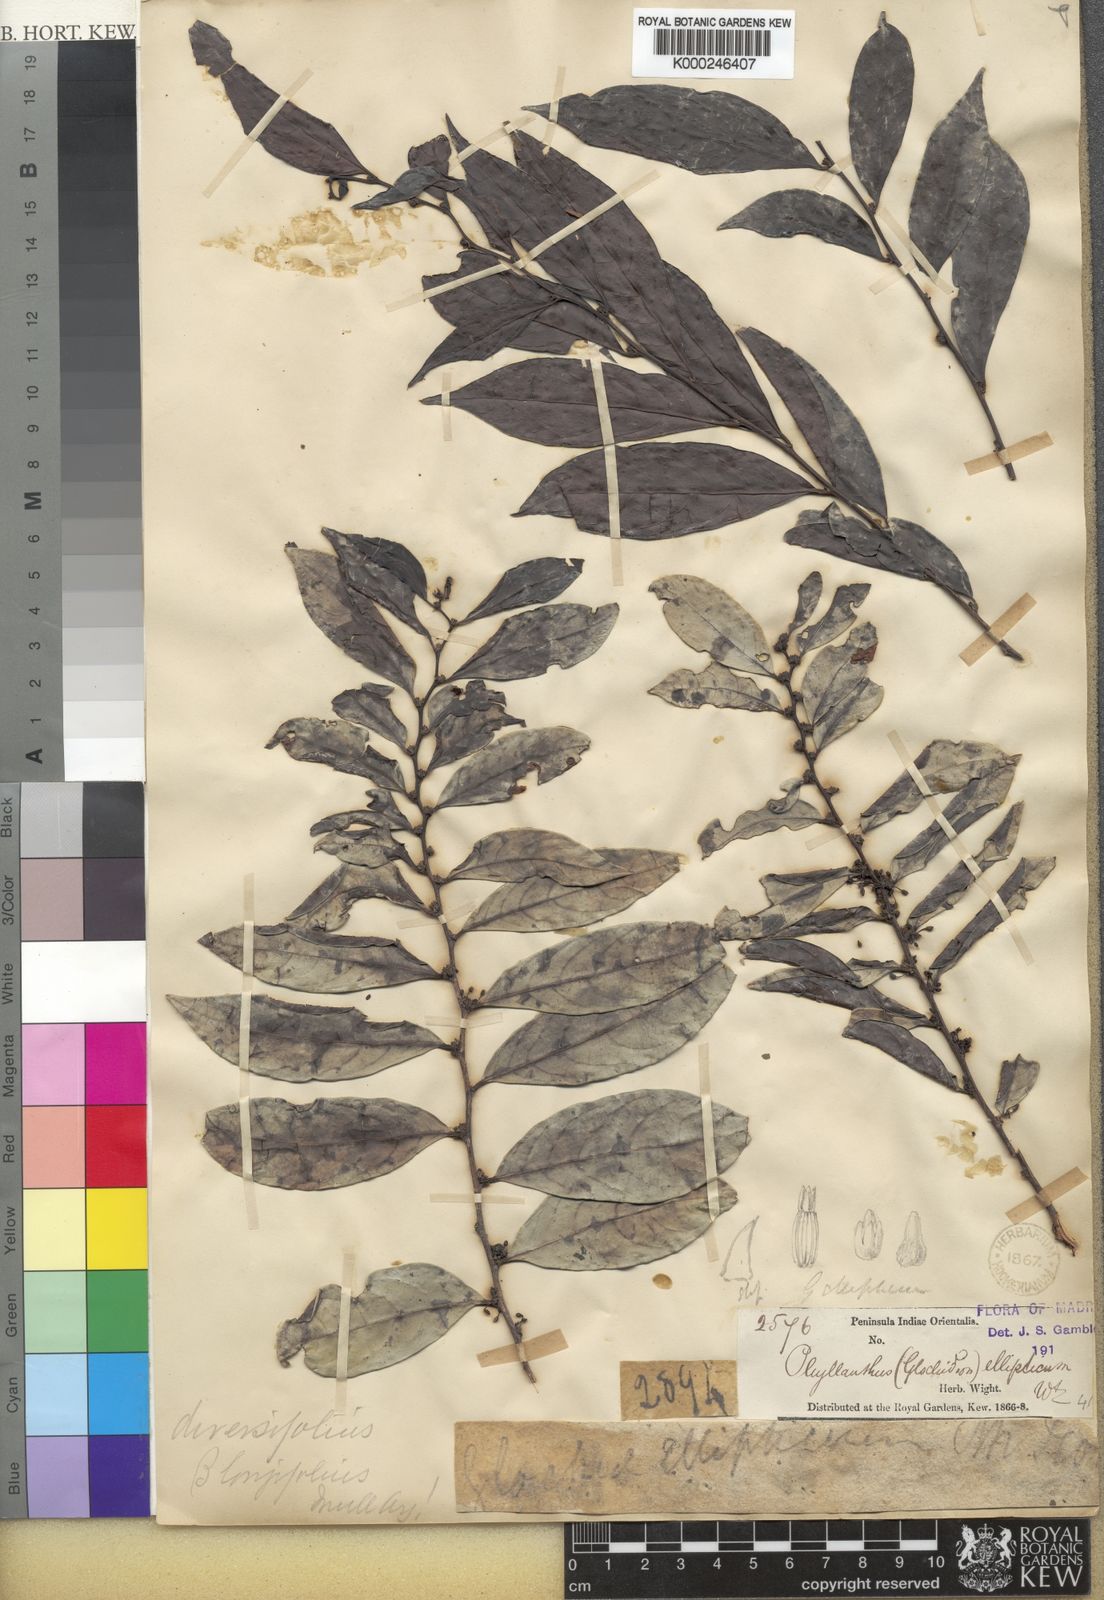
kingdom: Plantae
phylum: Tracheophyta
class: Magnoliopsida
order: Malpighiales
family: Phyllanthaceae
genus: Glochidion
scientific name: Glochidion ellipticum
